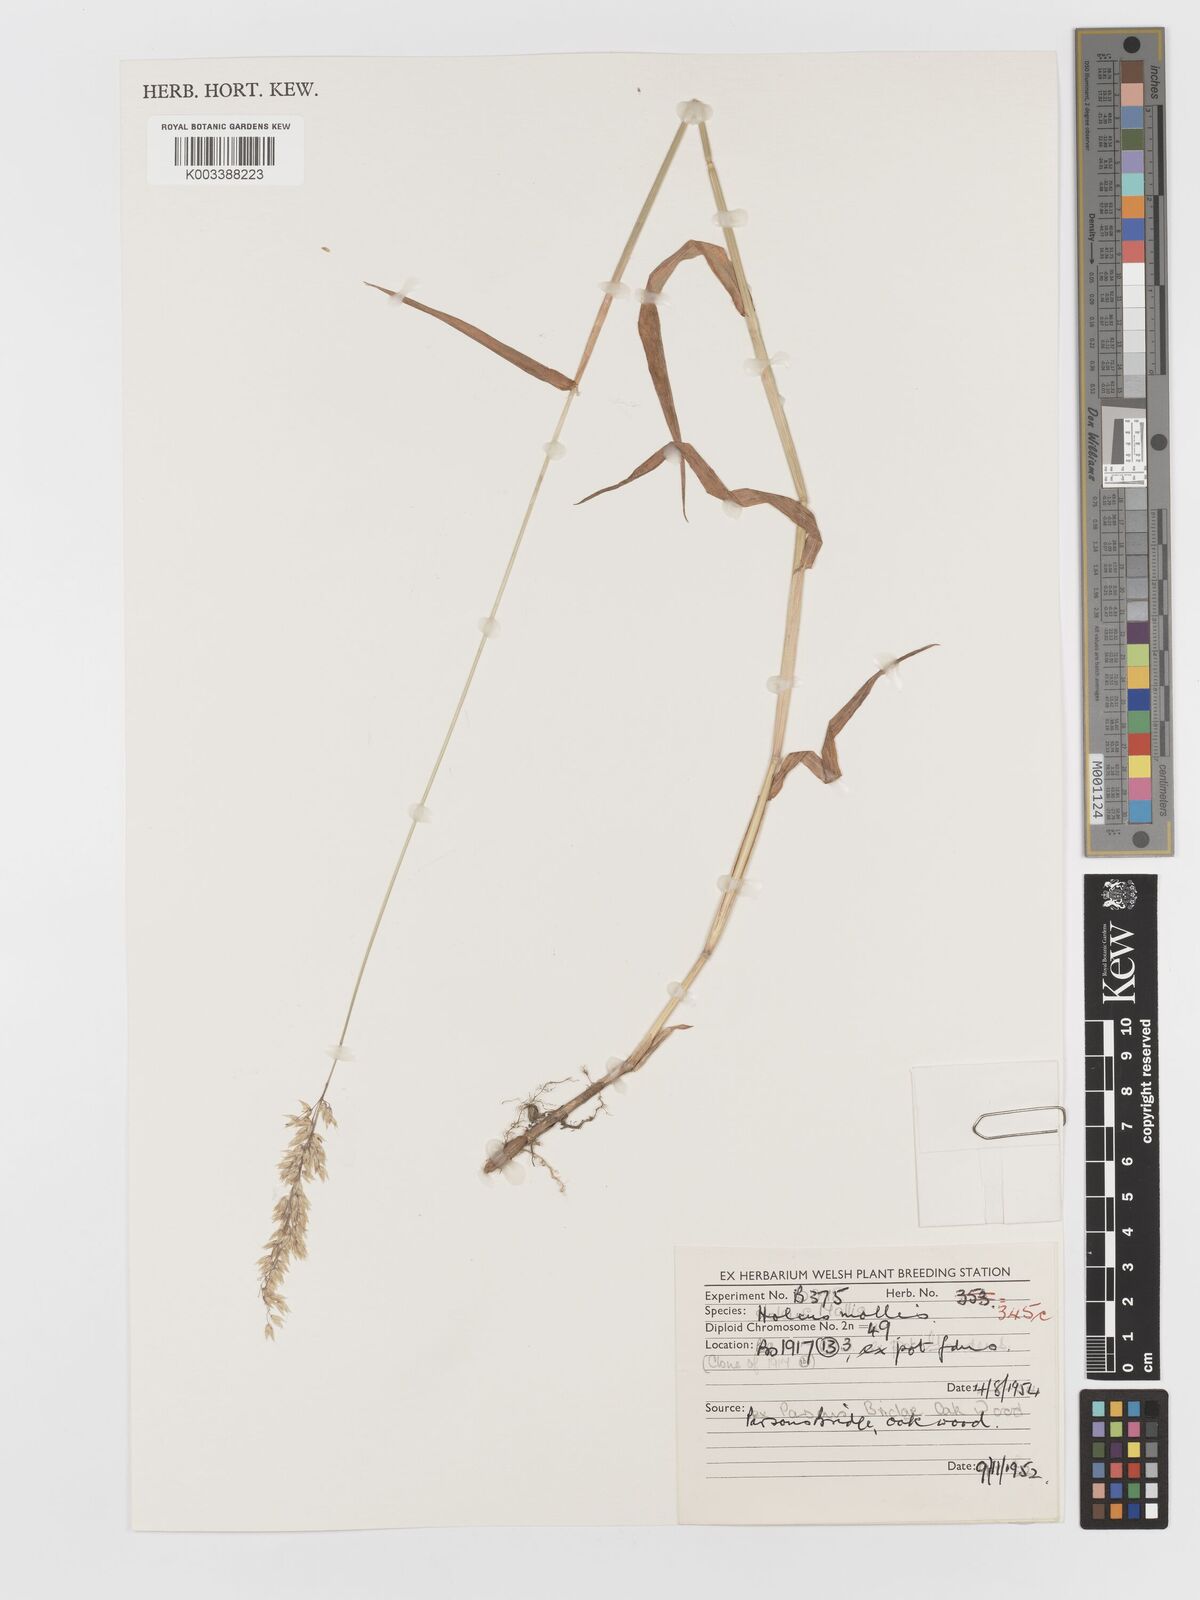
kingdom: Plantae
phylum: Tracheophyta
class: Liliopsida
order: Poales
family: Poaceae
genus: Holcus
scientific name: Holcus mollis
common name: Creeping velvetgrass
